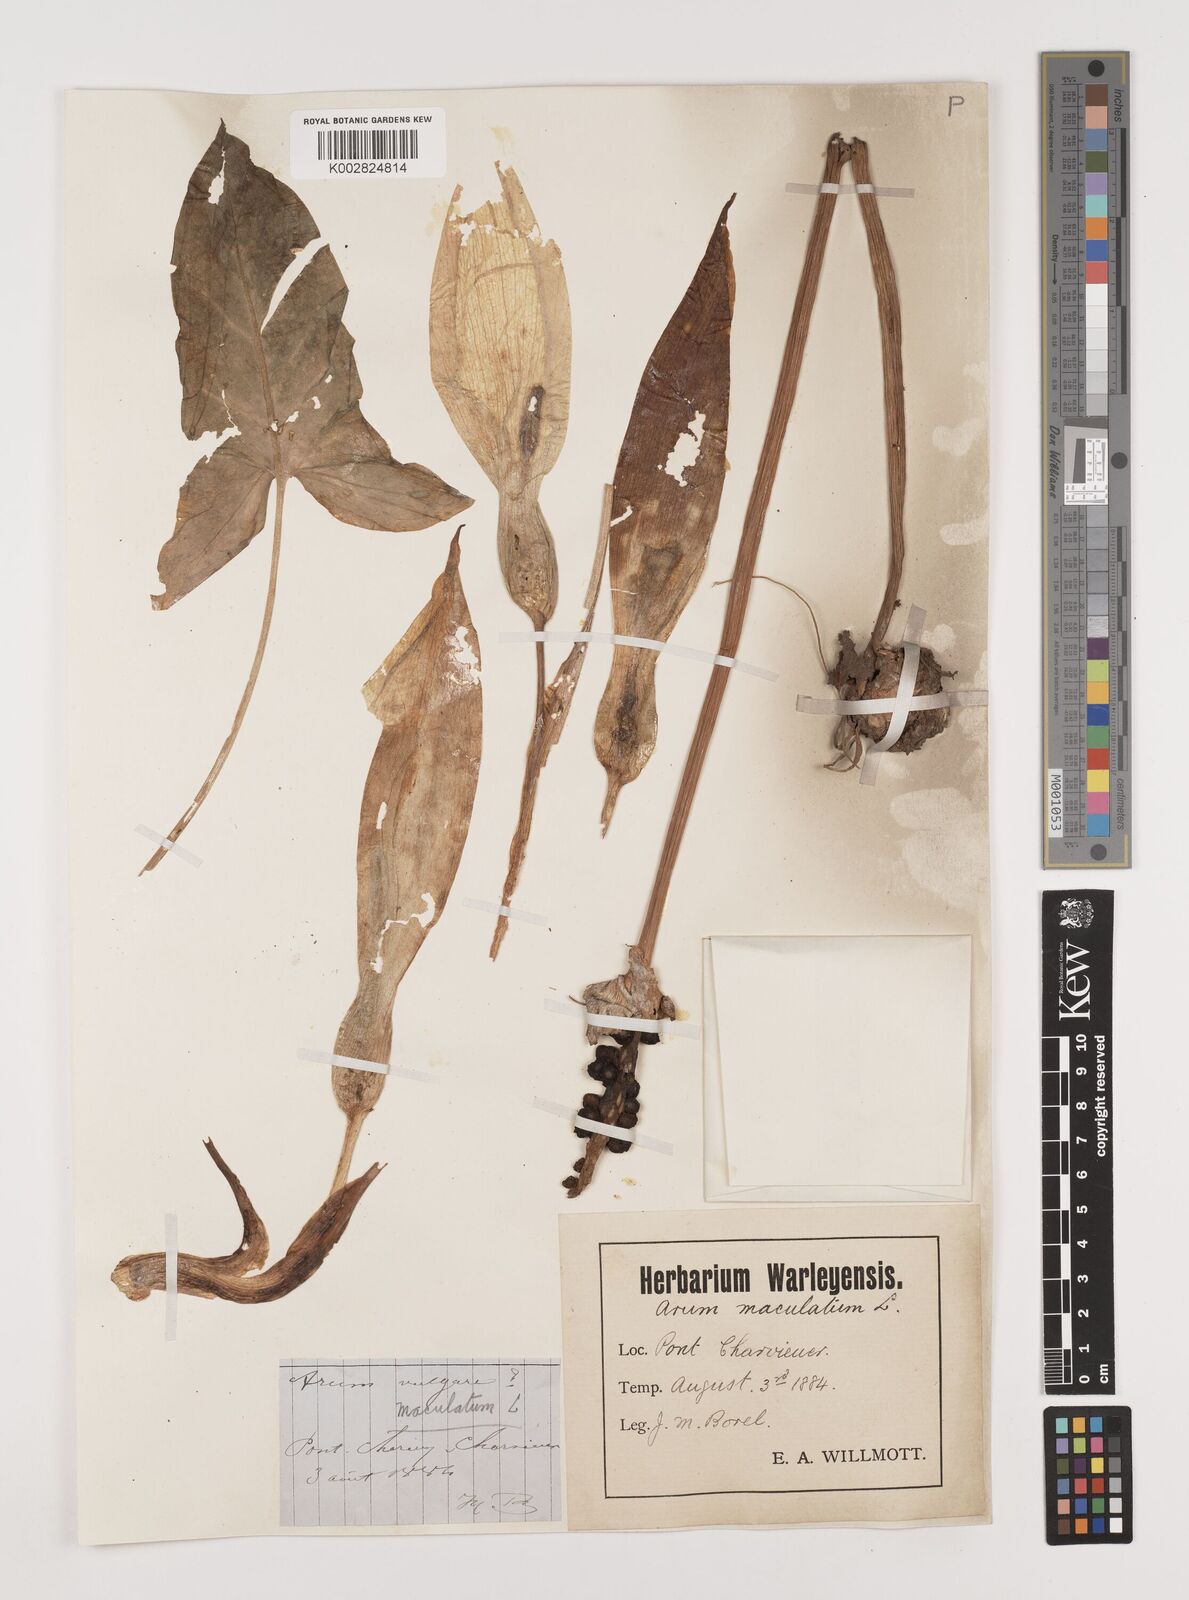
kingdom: Plantae
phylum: Tracheophyta
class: Liliopsida
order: Alismatales
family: Araceae
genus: Arum
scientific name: Arum maculatum
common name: Lords-and-ladies
